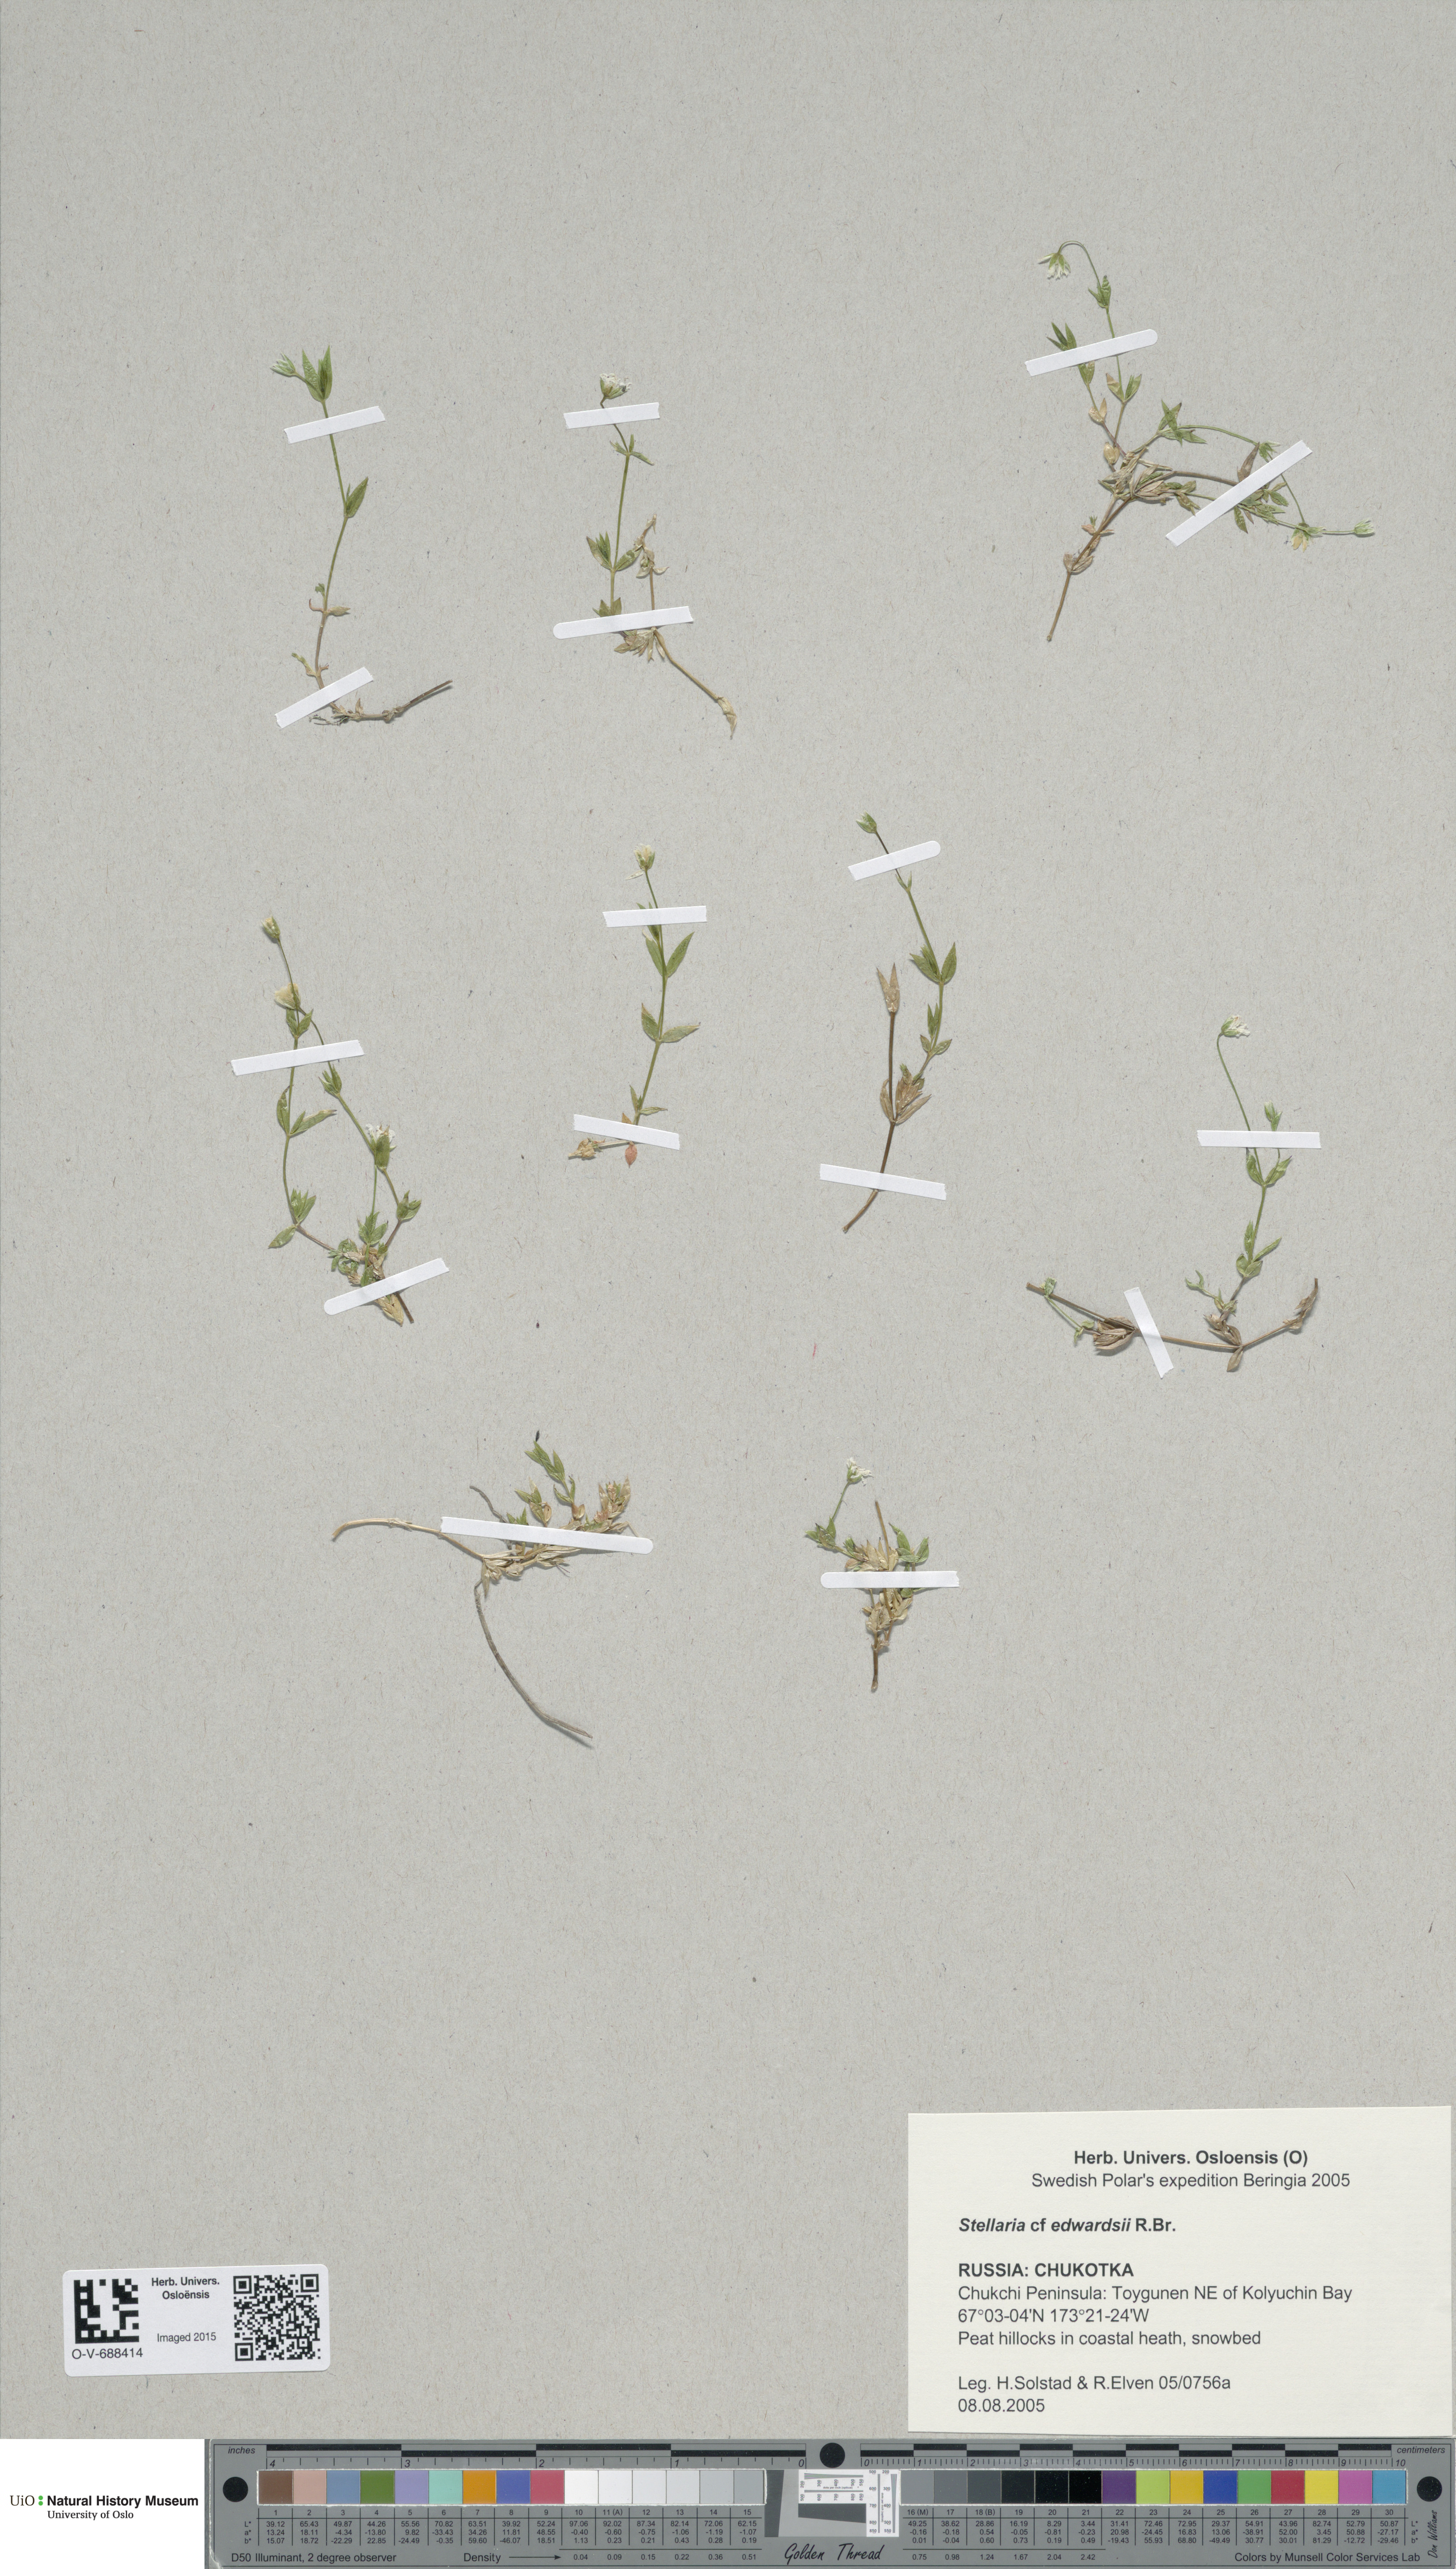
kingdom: Plantae
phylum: Tracheophyta
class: Magnoliopsida
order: Caryophyllales
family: Caryophyllaceae
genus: Stellaria
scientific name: Stellaria edwardsii
